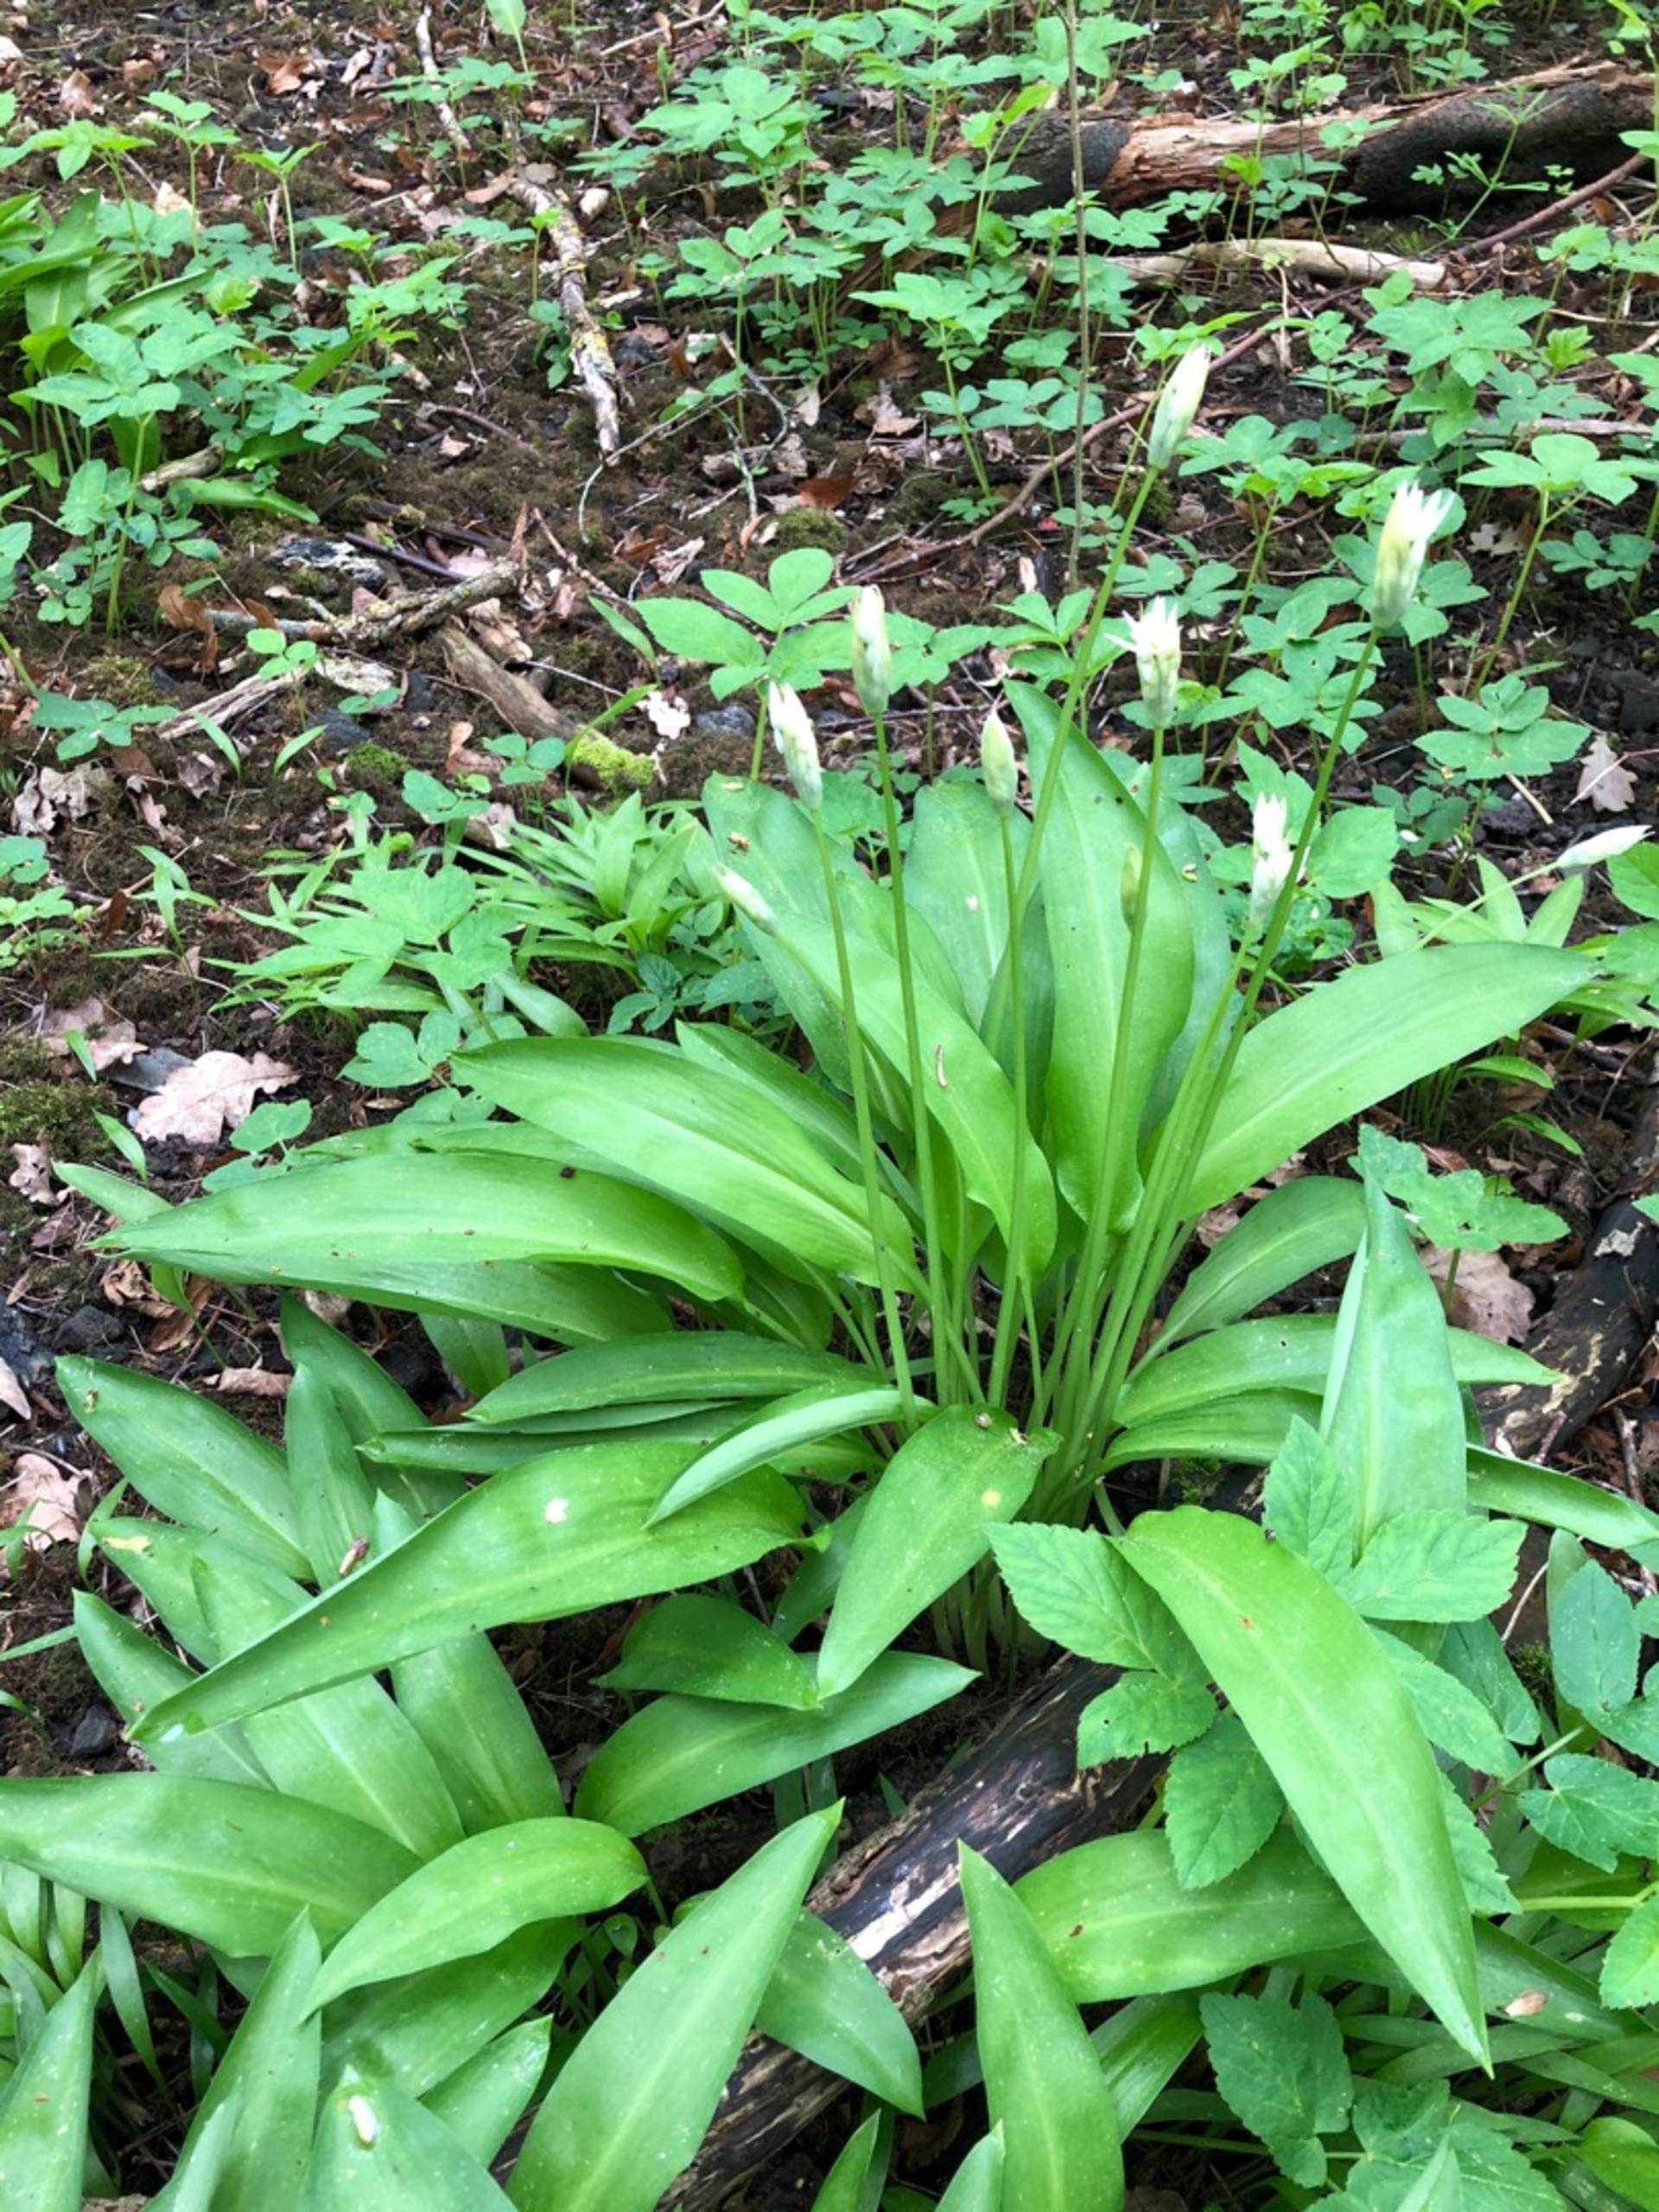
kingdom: Plantae
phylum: Tracheophyta
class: Liliopsida
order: Asparagales
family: Amaryllidaceae
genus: Allium
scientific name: Allium ursinum
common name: Rams-løg
